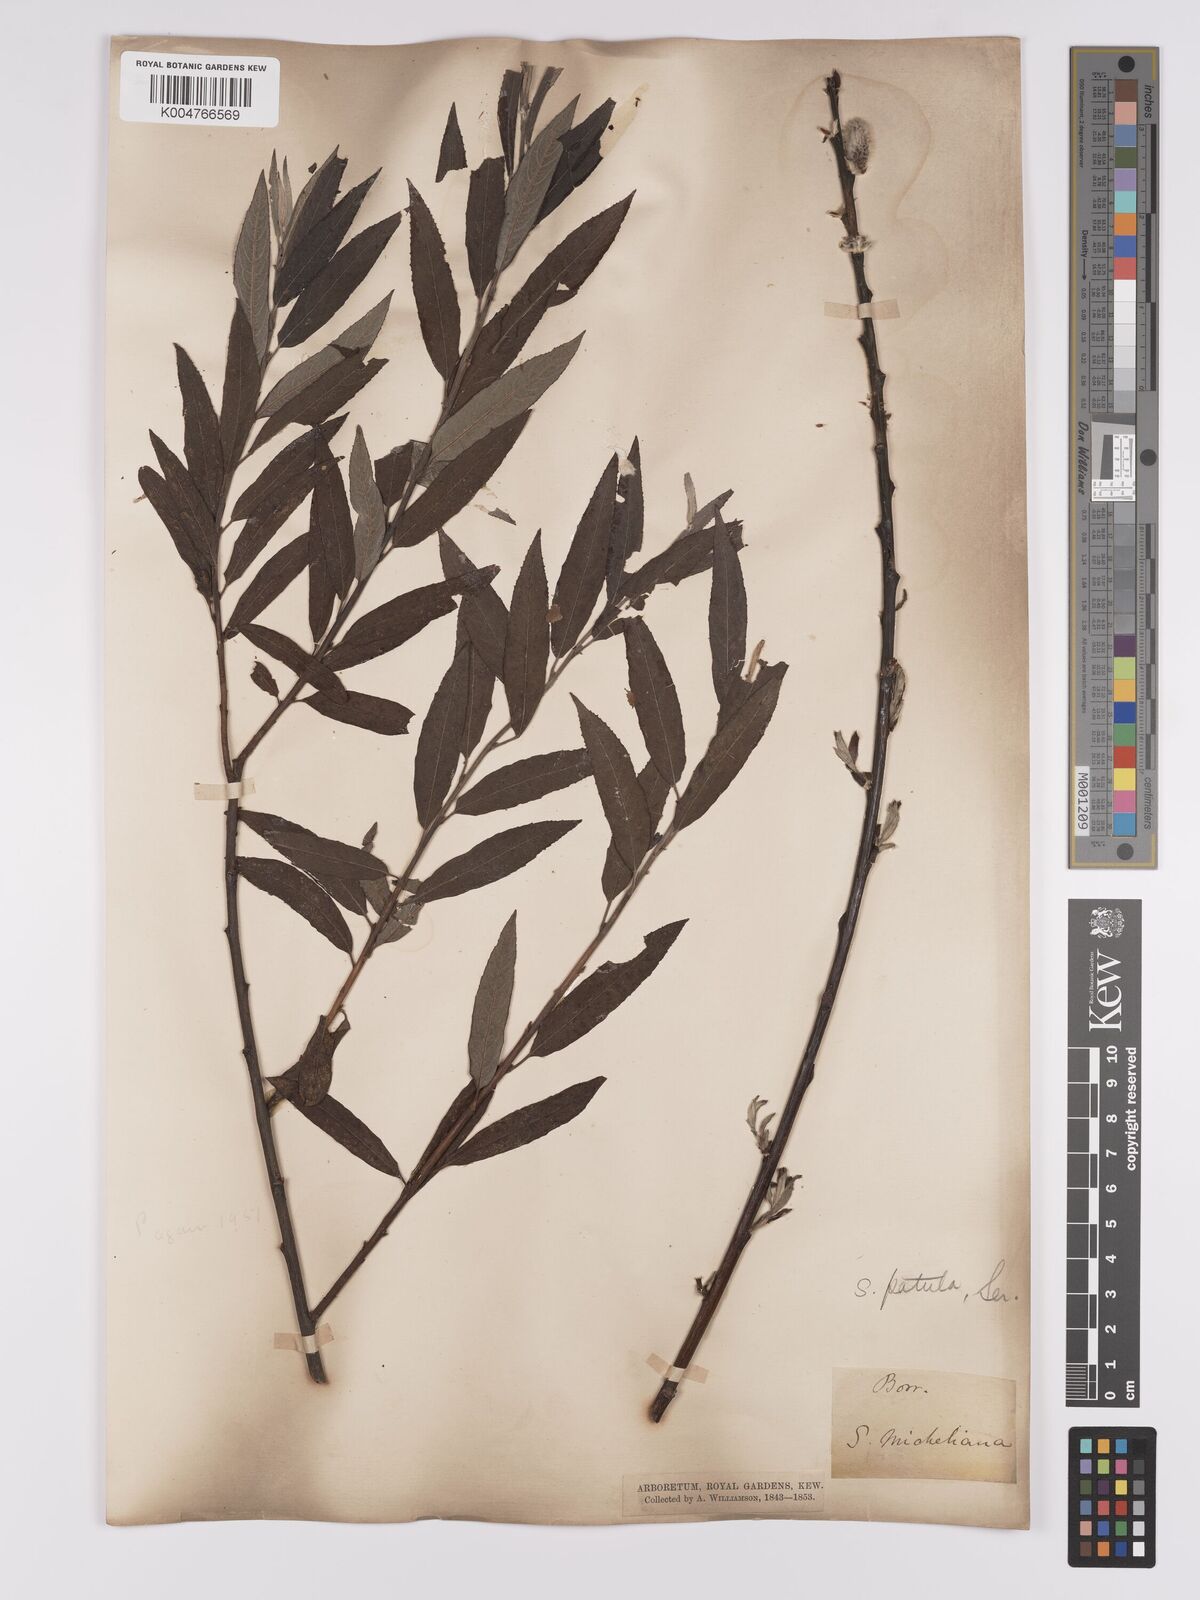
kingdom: Plantae
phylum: Tracheophyta
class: Magnoliopsida
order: Malpighiales
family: Salicaceae
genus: Salix
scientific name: Salix
